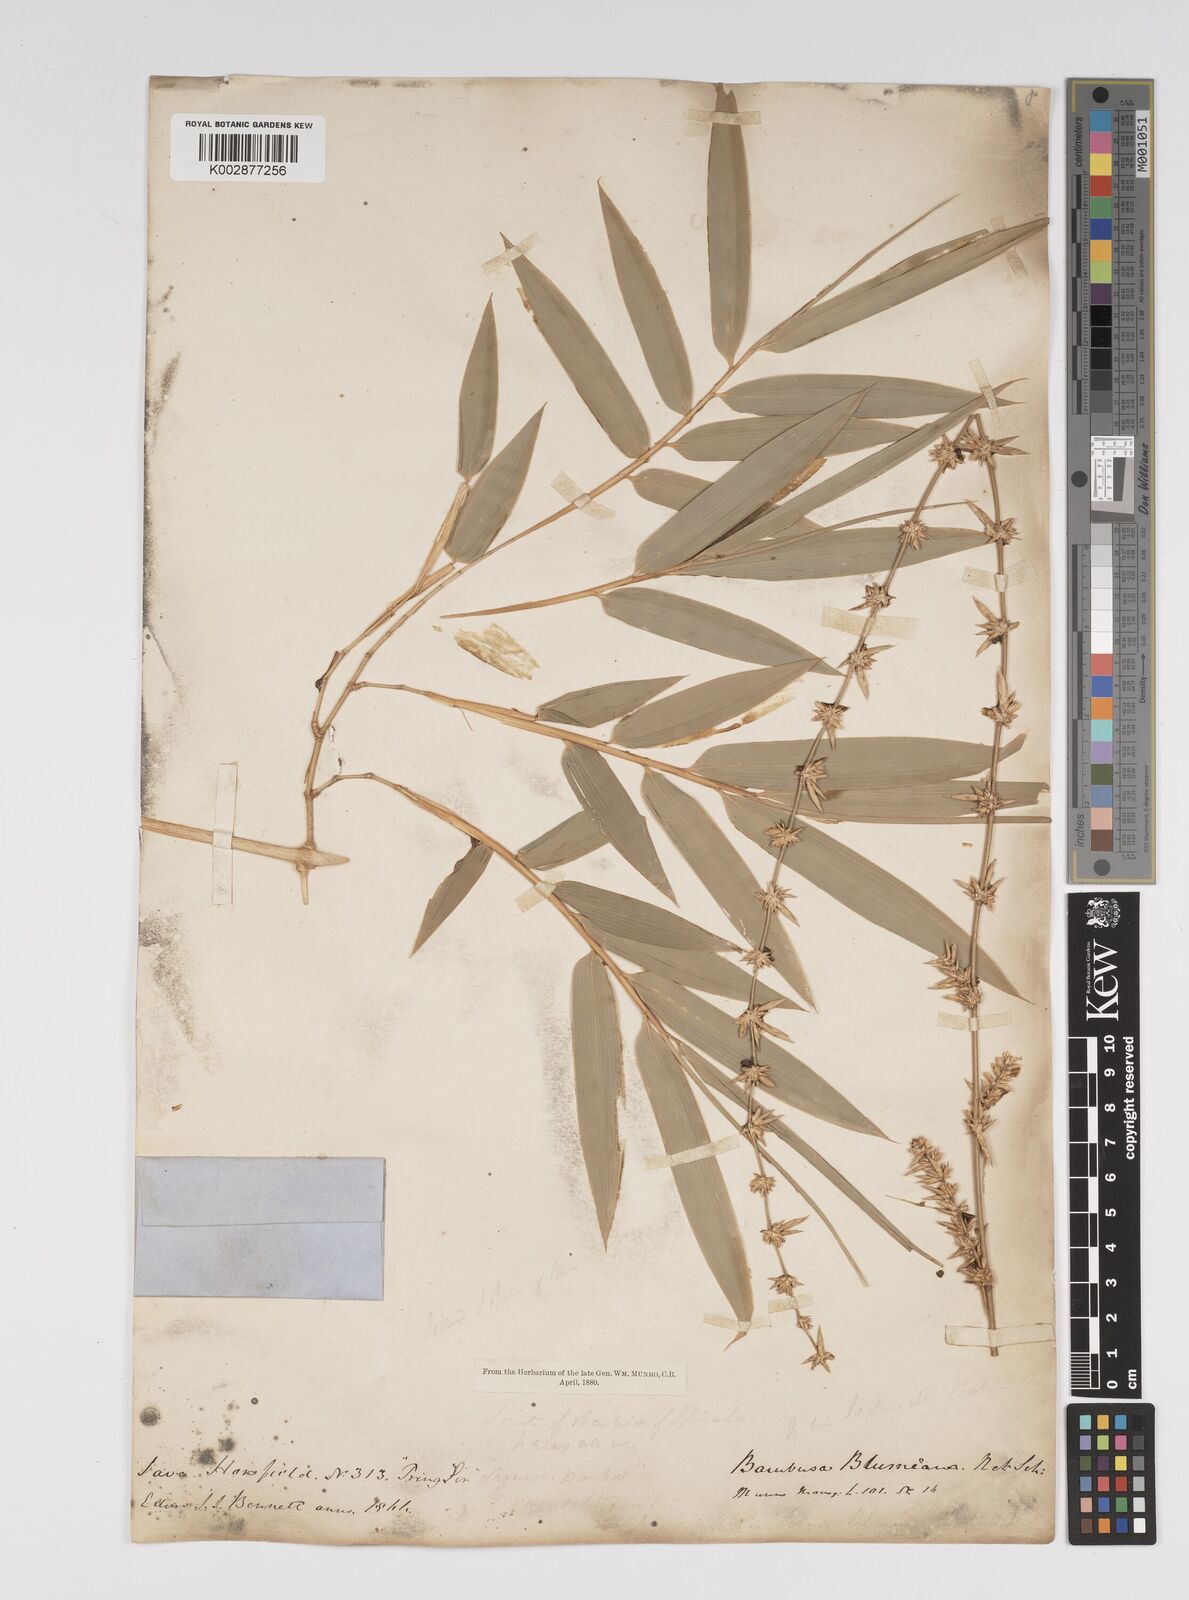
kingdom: Plantae
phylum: Tracheophyta
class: Liliopsida
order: Poales
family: Poaceae
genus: Bambusa
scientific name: Bambusa spinosa
